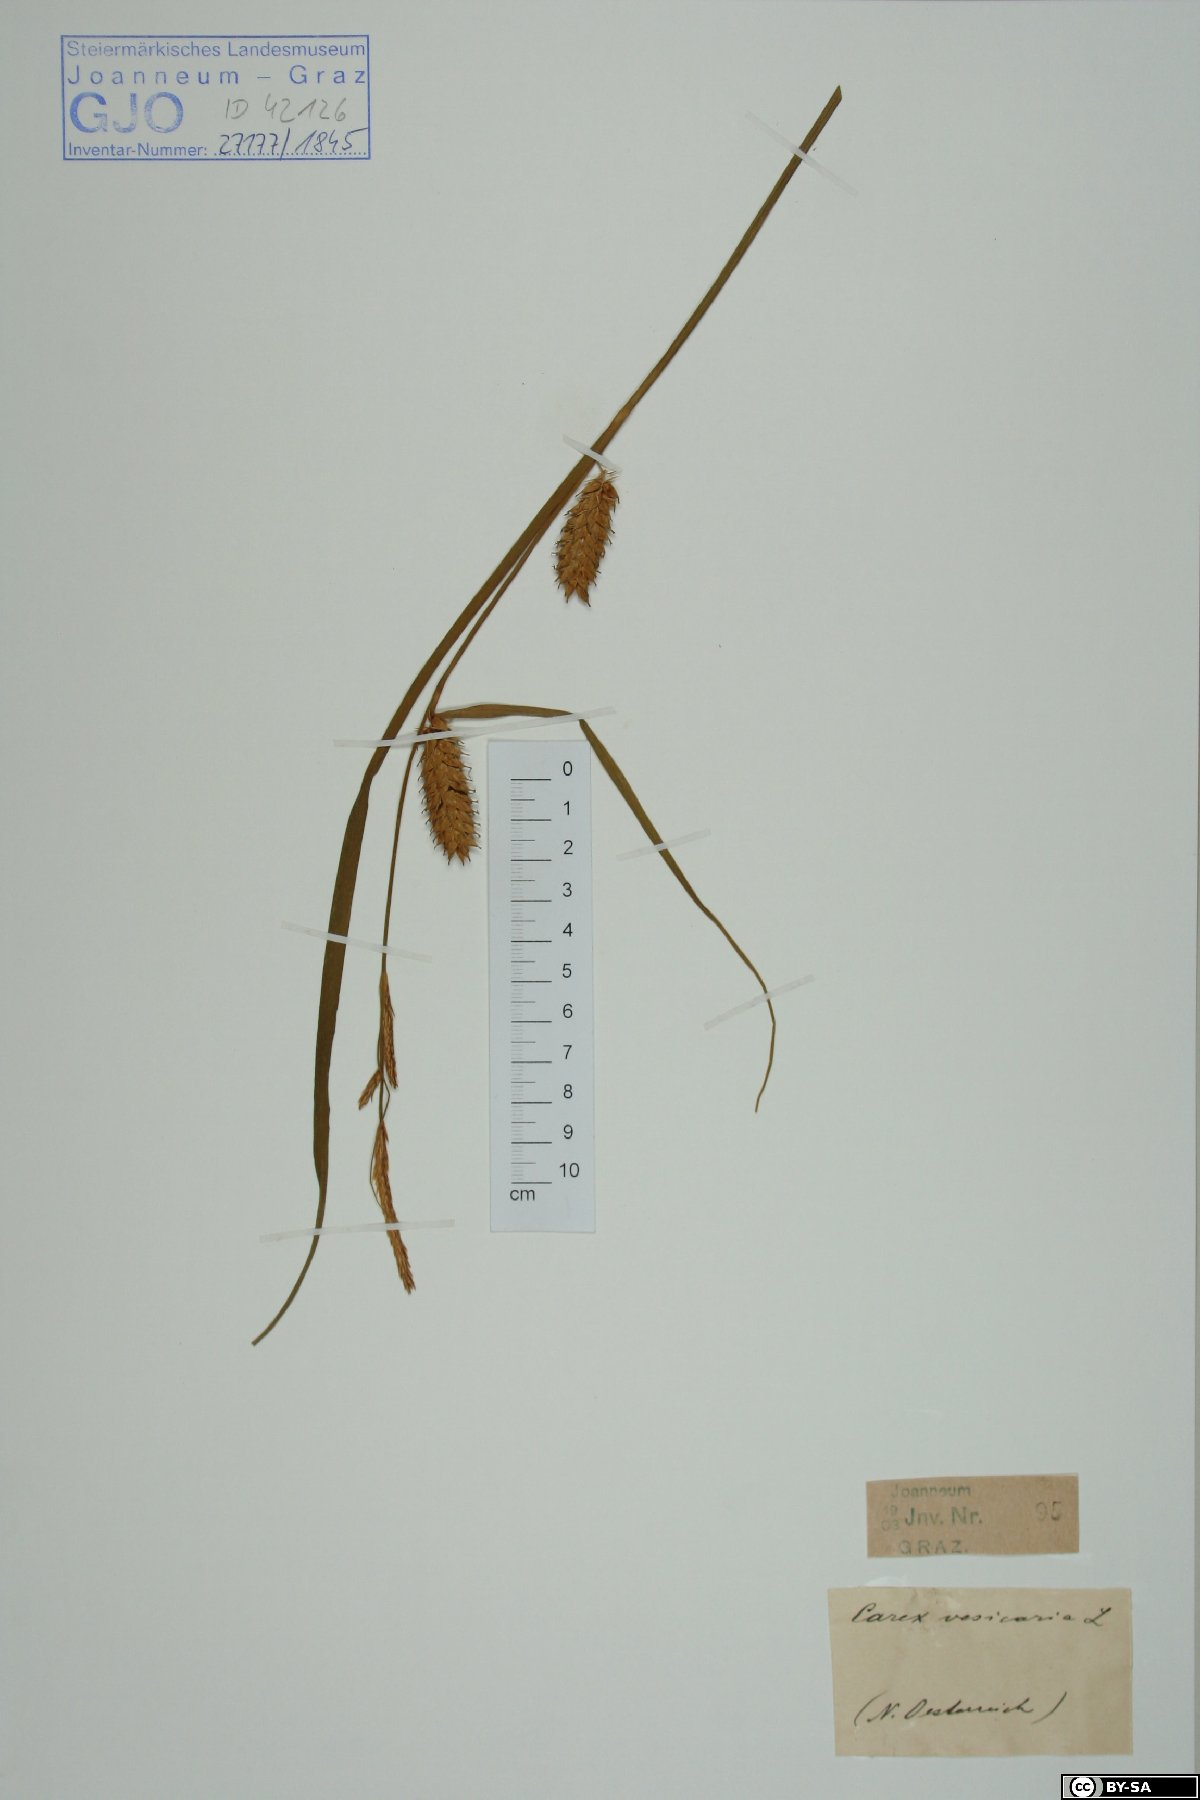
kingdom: Plantae
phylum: Tracheophyta
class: Liliopsida
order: Poales
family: Cyperaceae
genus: Carex
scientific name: Carex vesicaria
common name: Bladder-sedge
